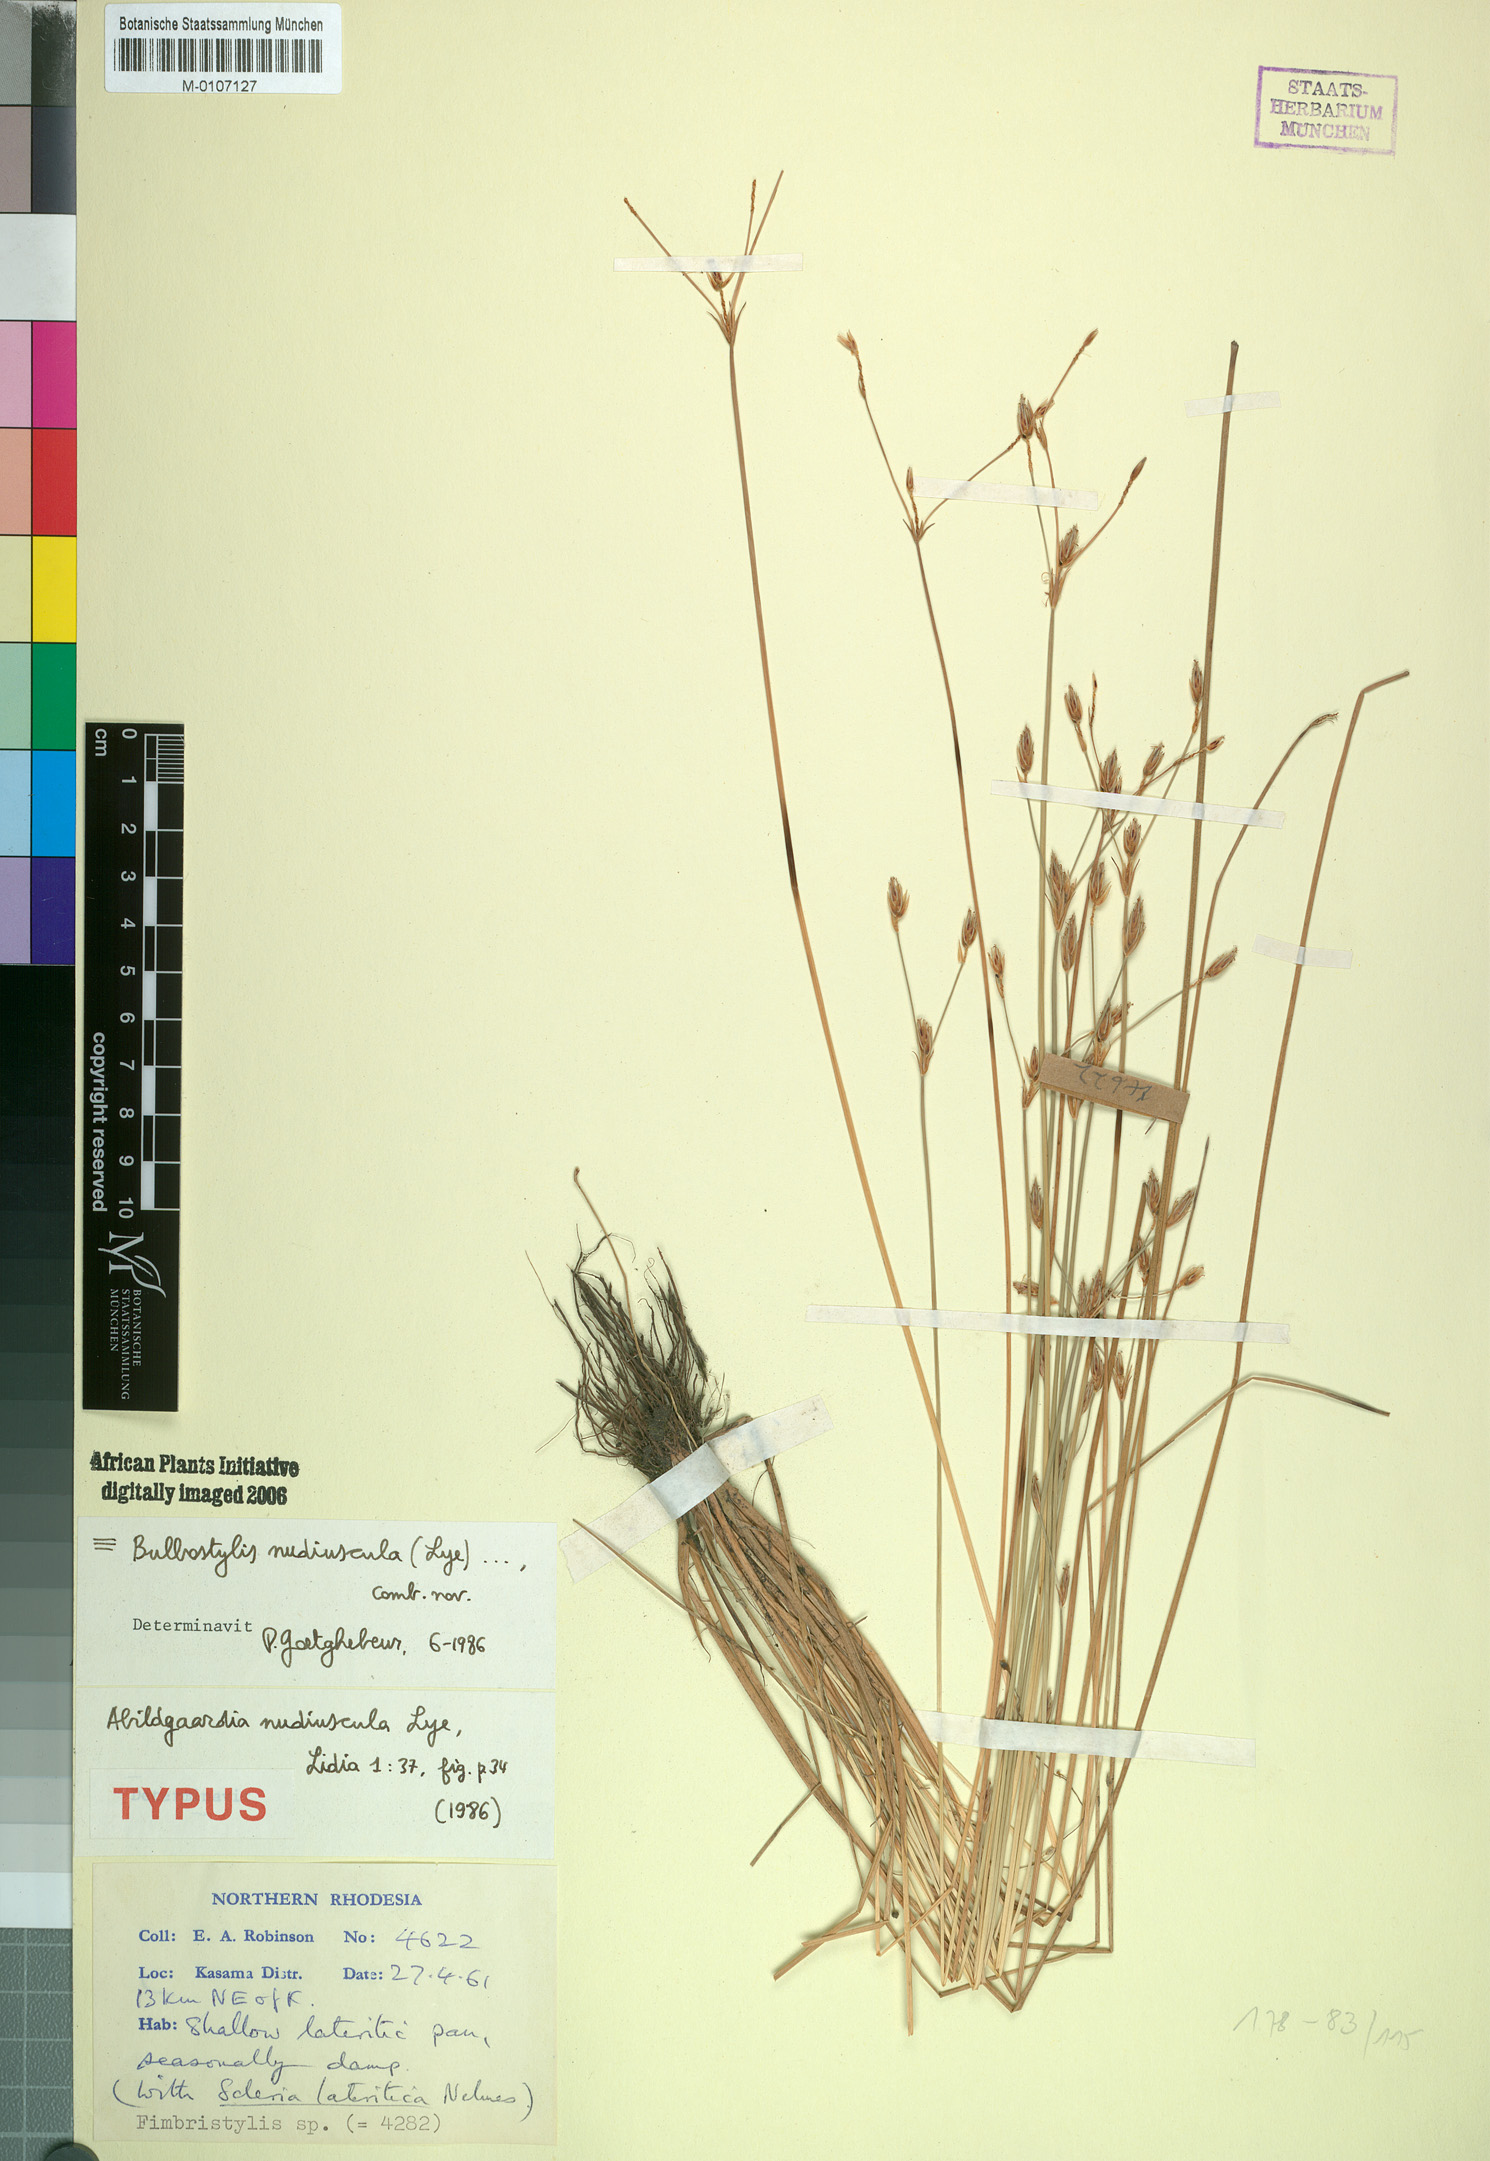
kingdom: Plantae
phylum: Tracheophyta
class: Liliopsida
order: Poales
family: Cyperaceae
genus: Bulbostylis
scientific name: Bulbostylis nudiuscula
